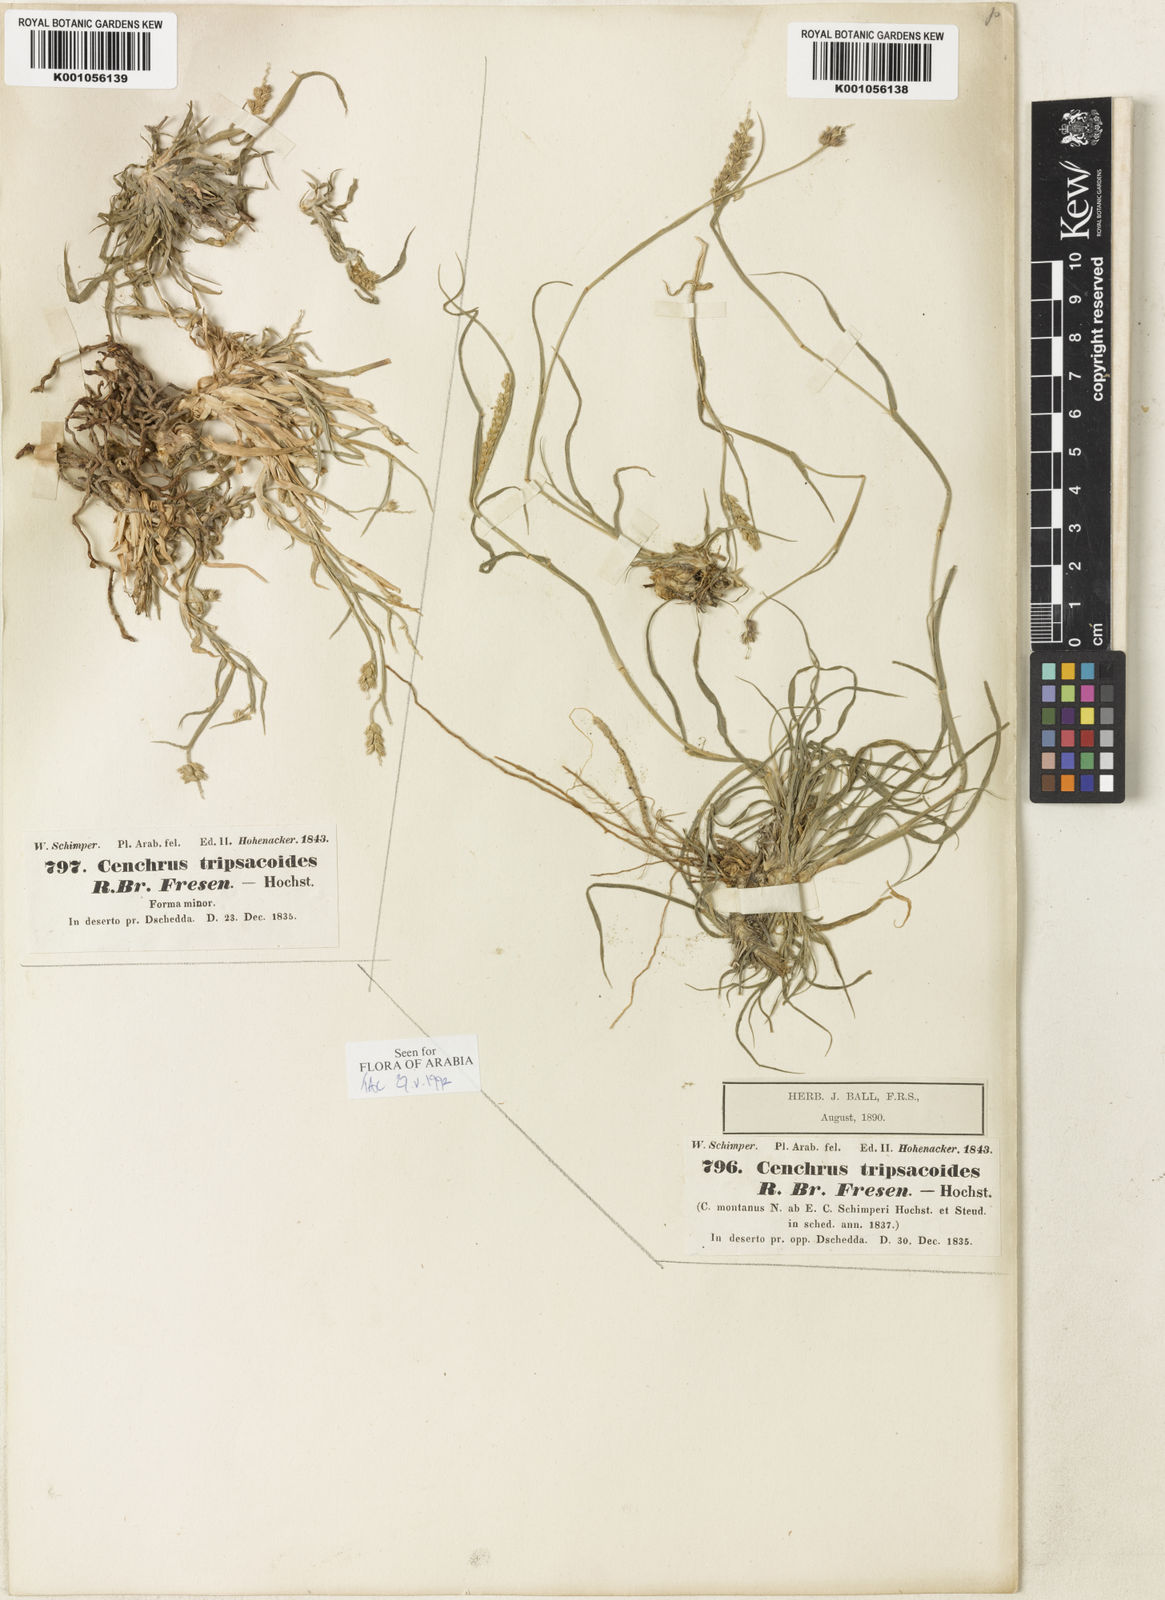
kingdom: Plantae
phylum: Tracheophyta
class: Liliopsida
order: Poales
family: Poaceae
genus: Cenchrus
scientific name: Cenchrus
